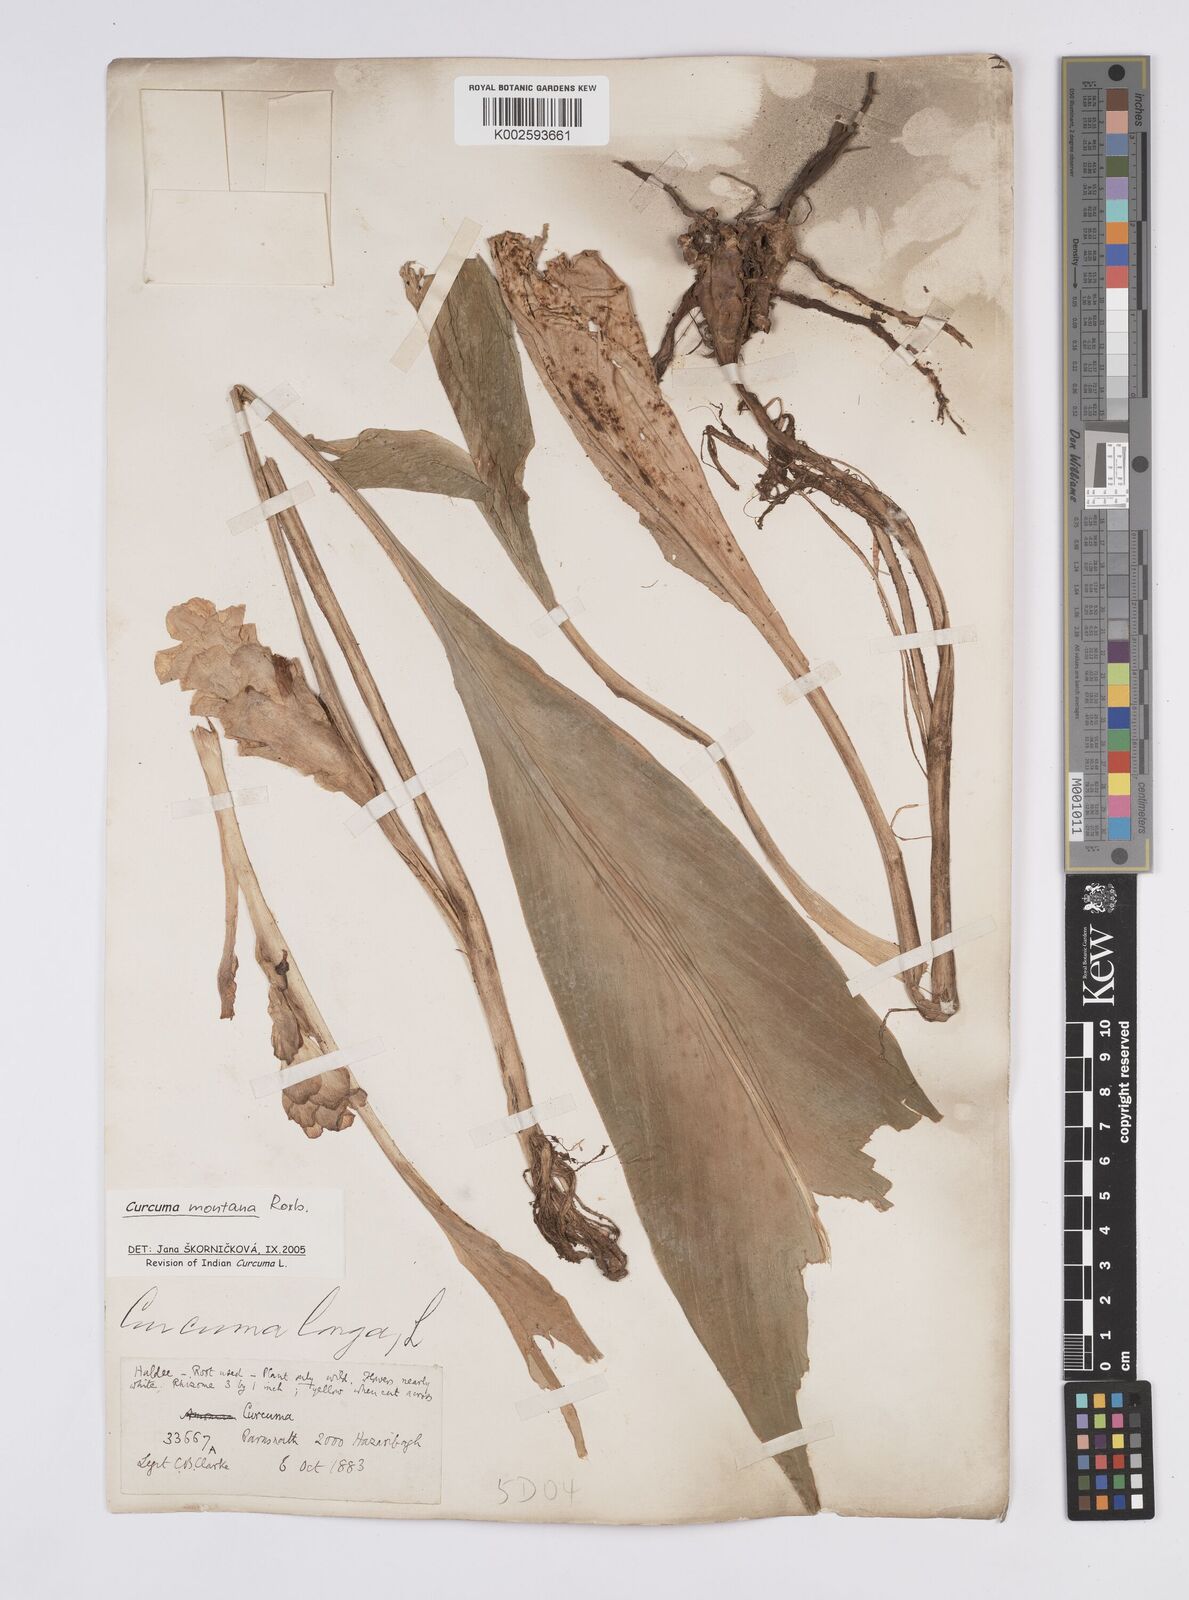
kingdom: Plantae
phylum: Tracheophyta
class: Liliopsida
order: Zingiberales
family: Zingiberaceae
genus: Curcuma
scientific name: Curcuma montana
